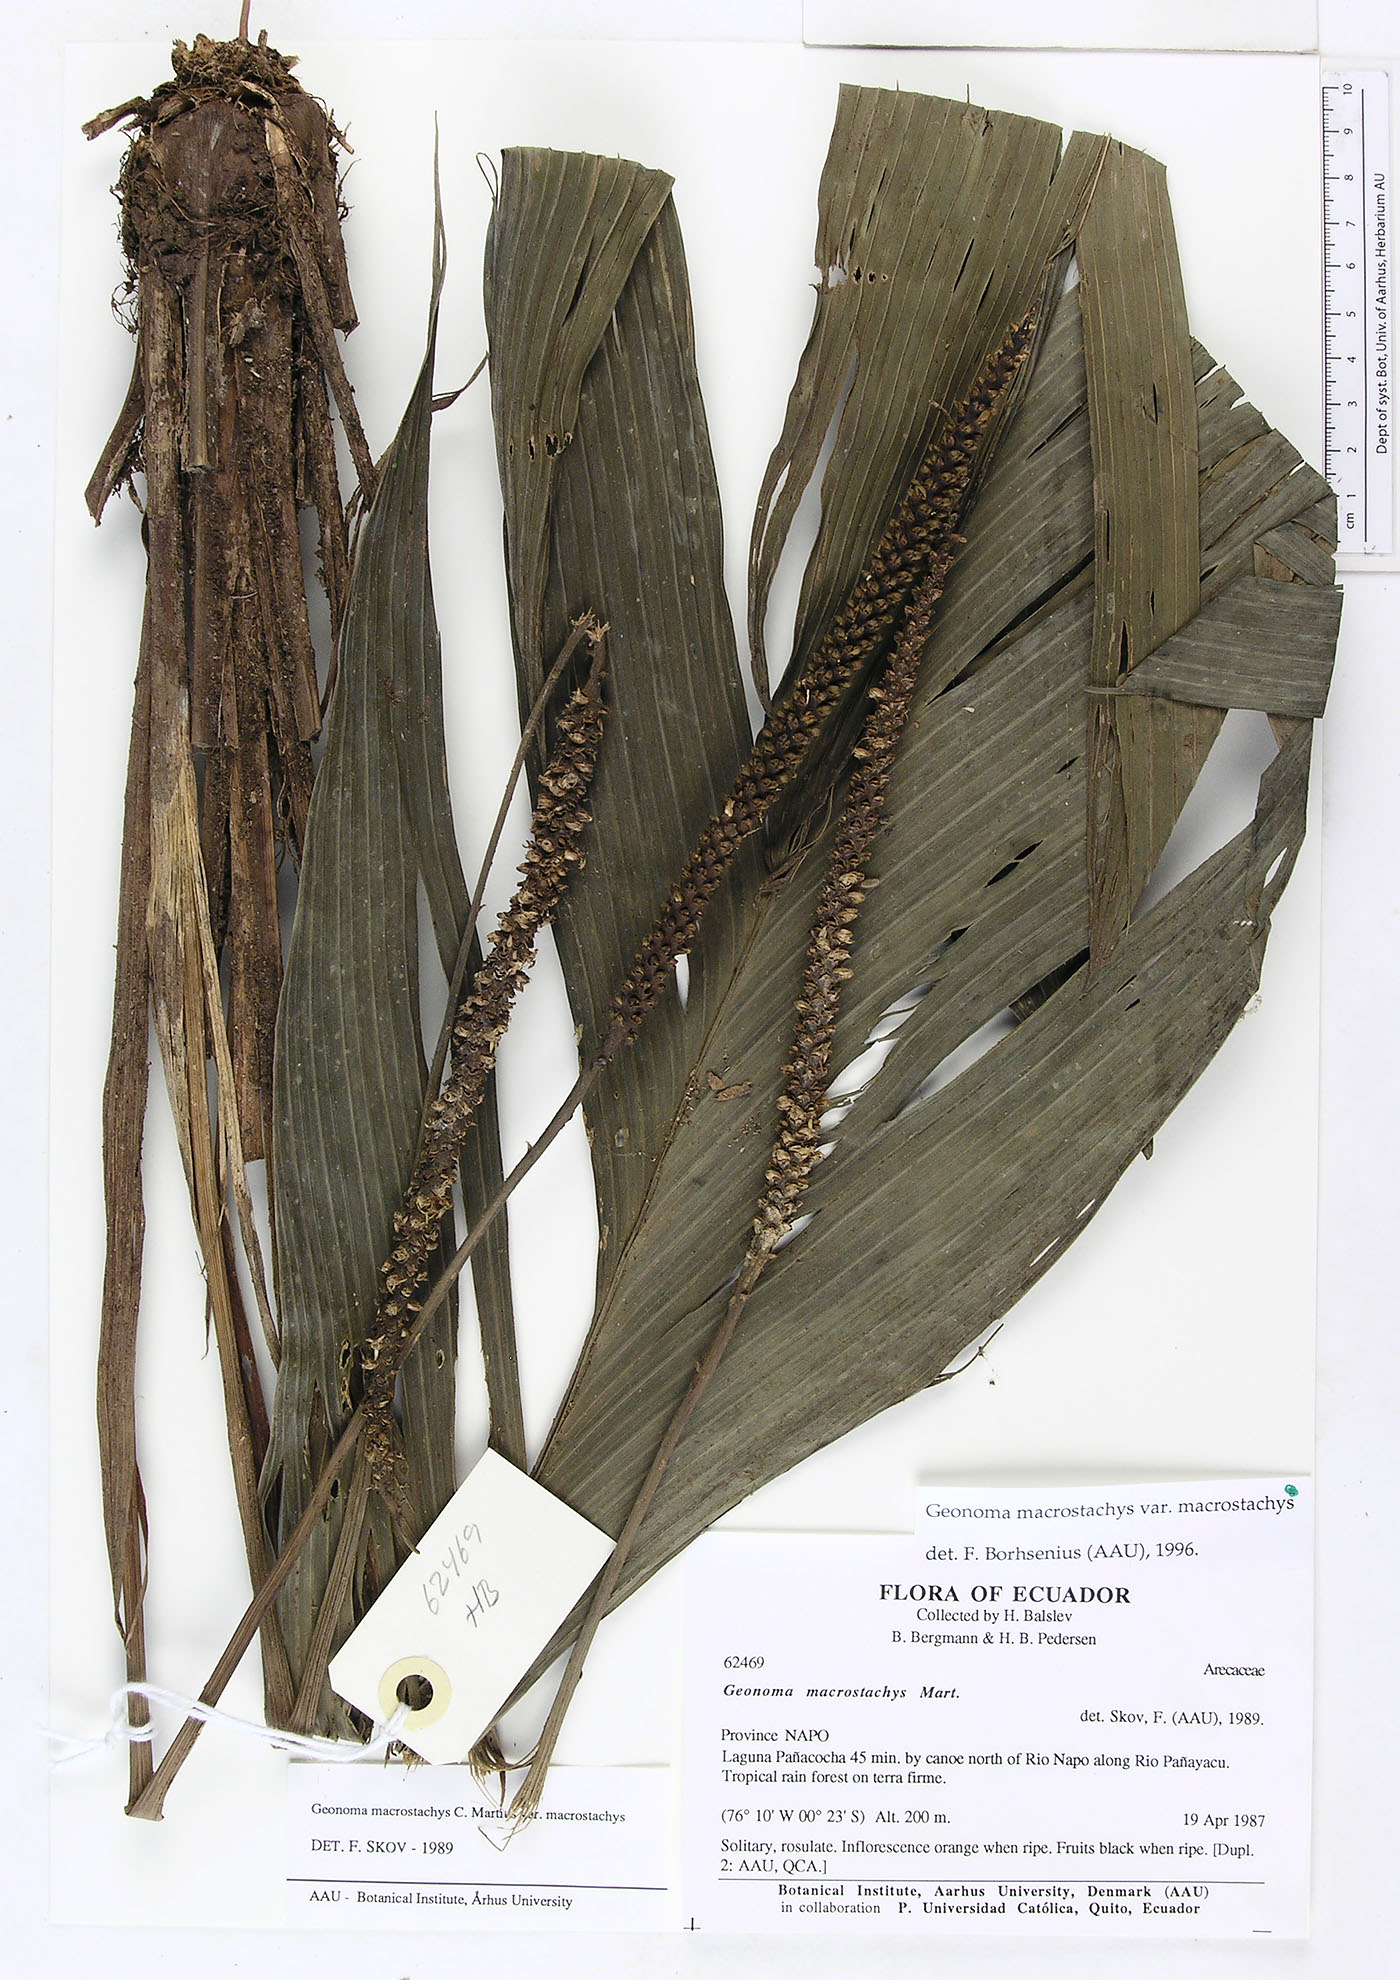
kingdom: Plantae
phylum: Tracheophyta
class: Liliopsida
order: Arecales
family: Arecaceae
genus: Geonoma
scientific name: Geonoma macrostachys
